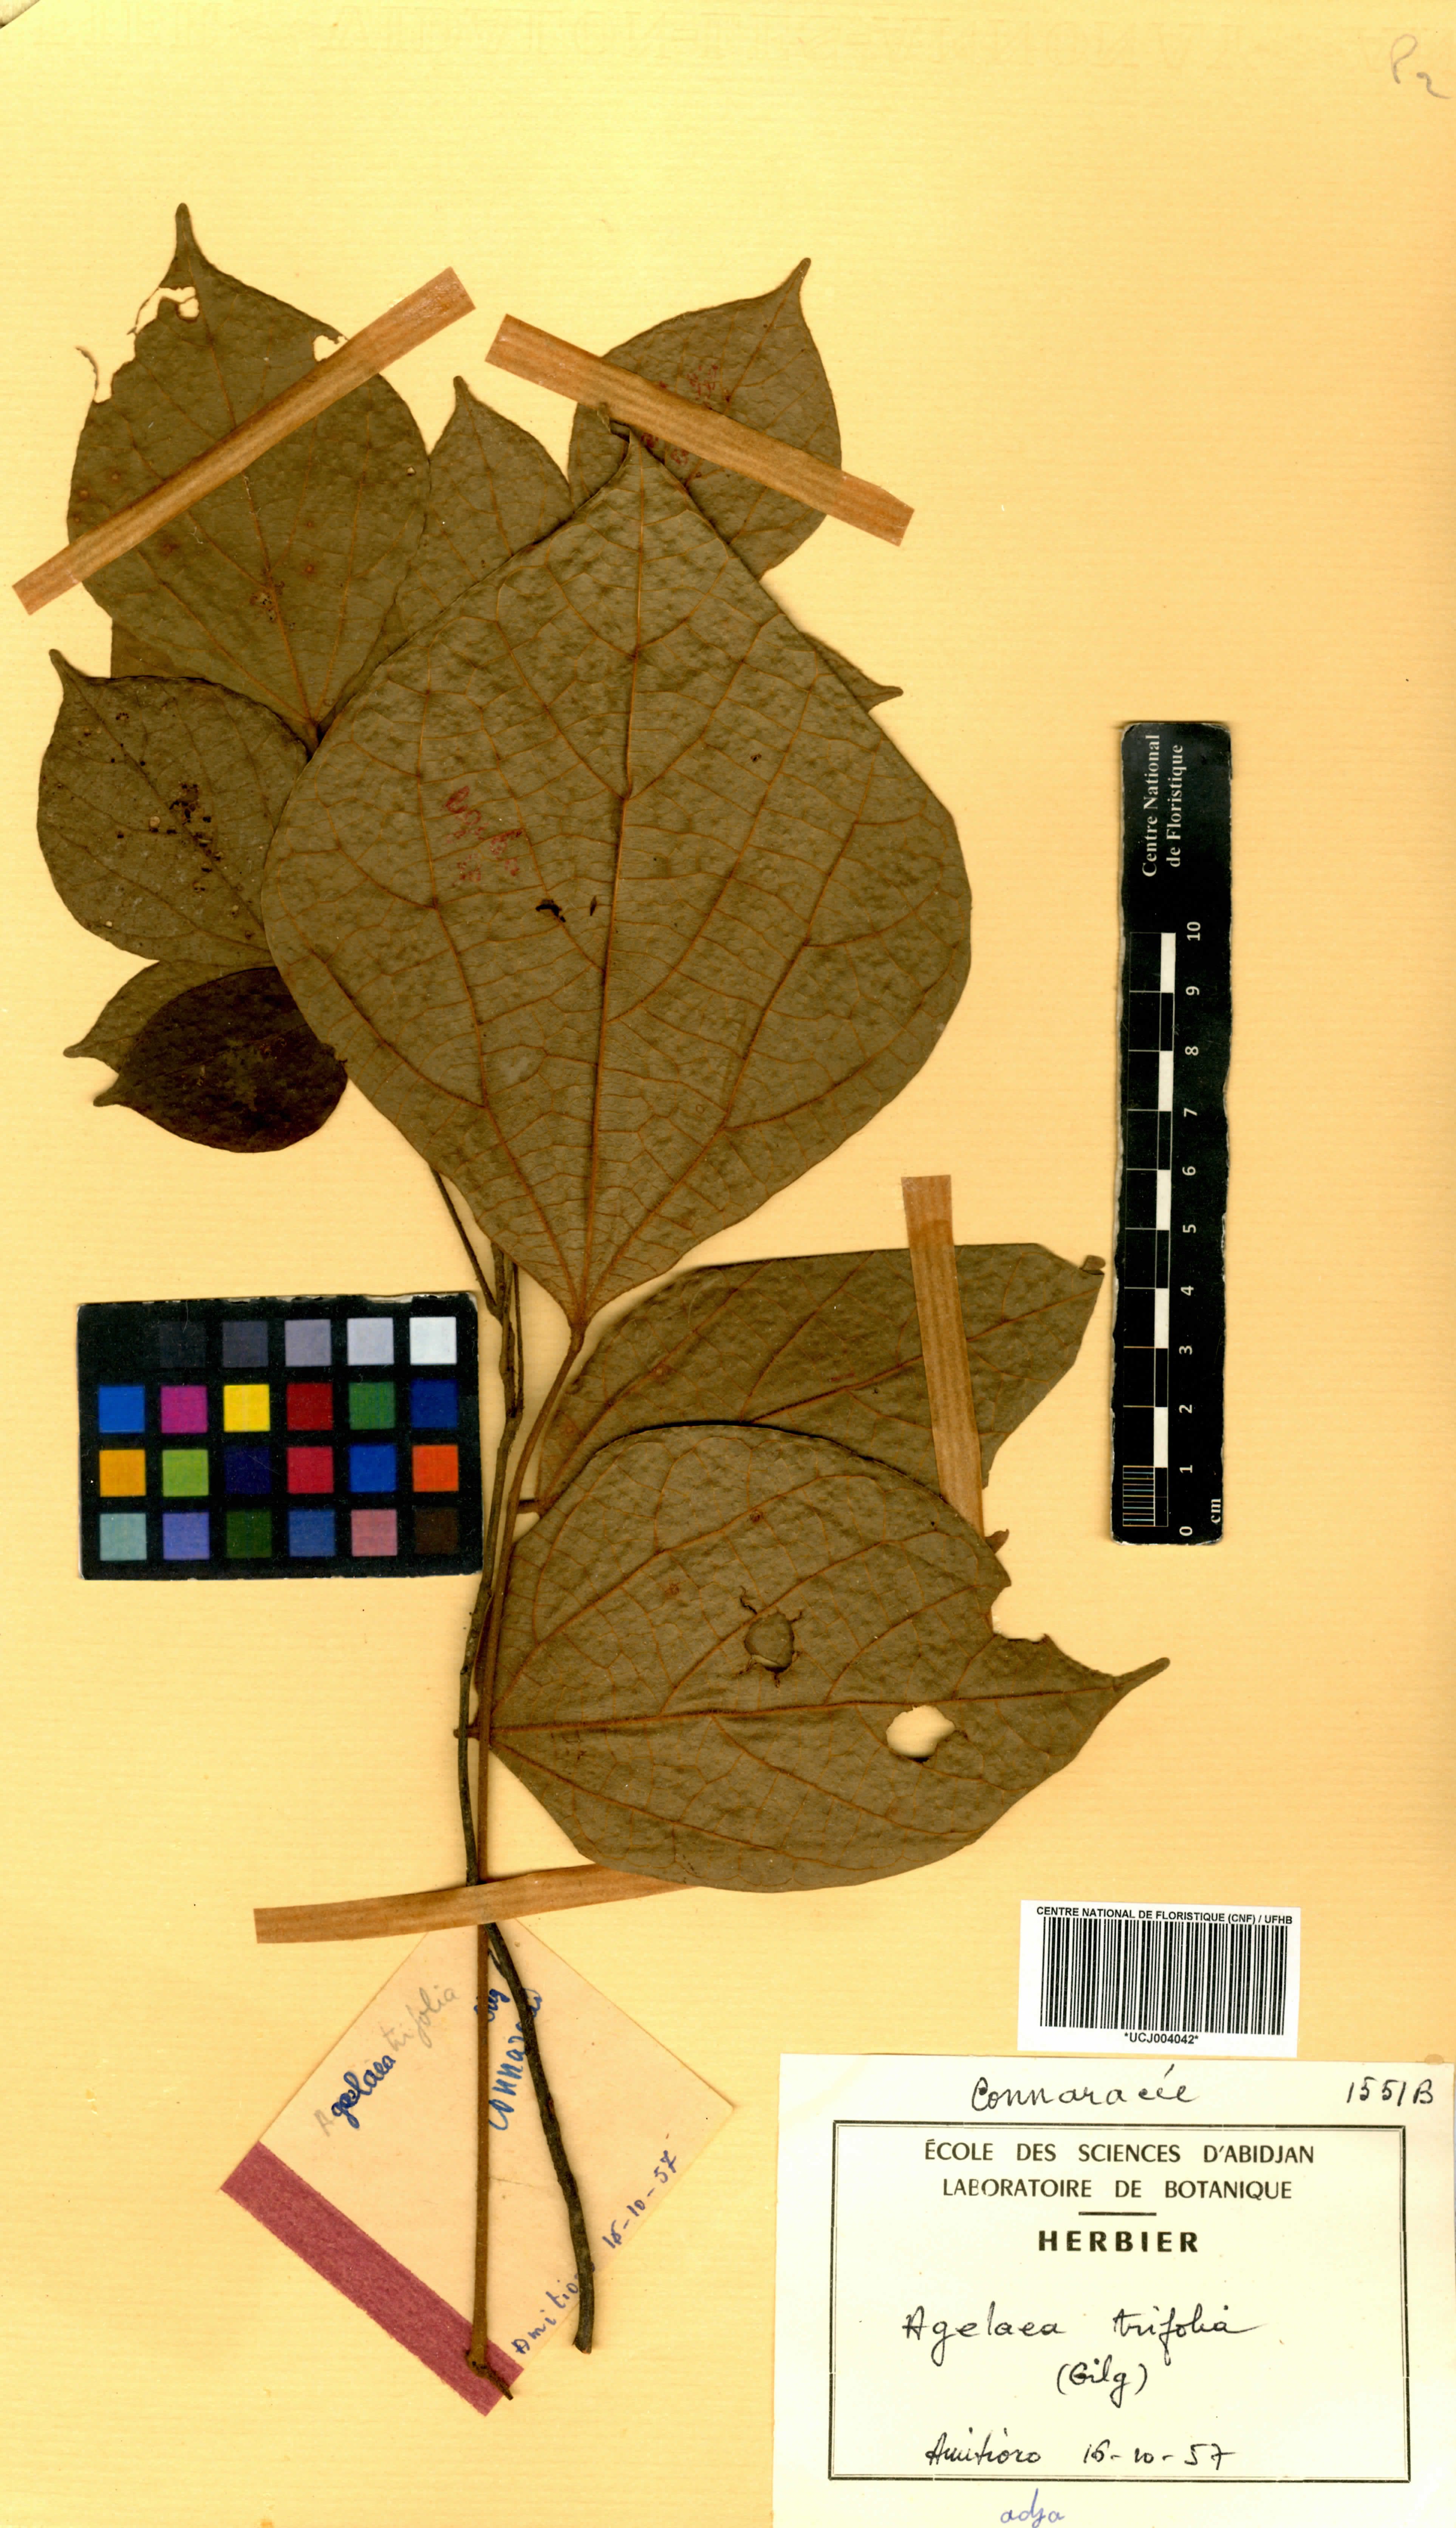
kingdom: Plantae
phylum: Tracheophyta
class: Magnoliopsida
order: Oxalidales
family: Connaraceae
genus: Agelaea
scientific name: Agelaea pentagyna
